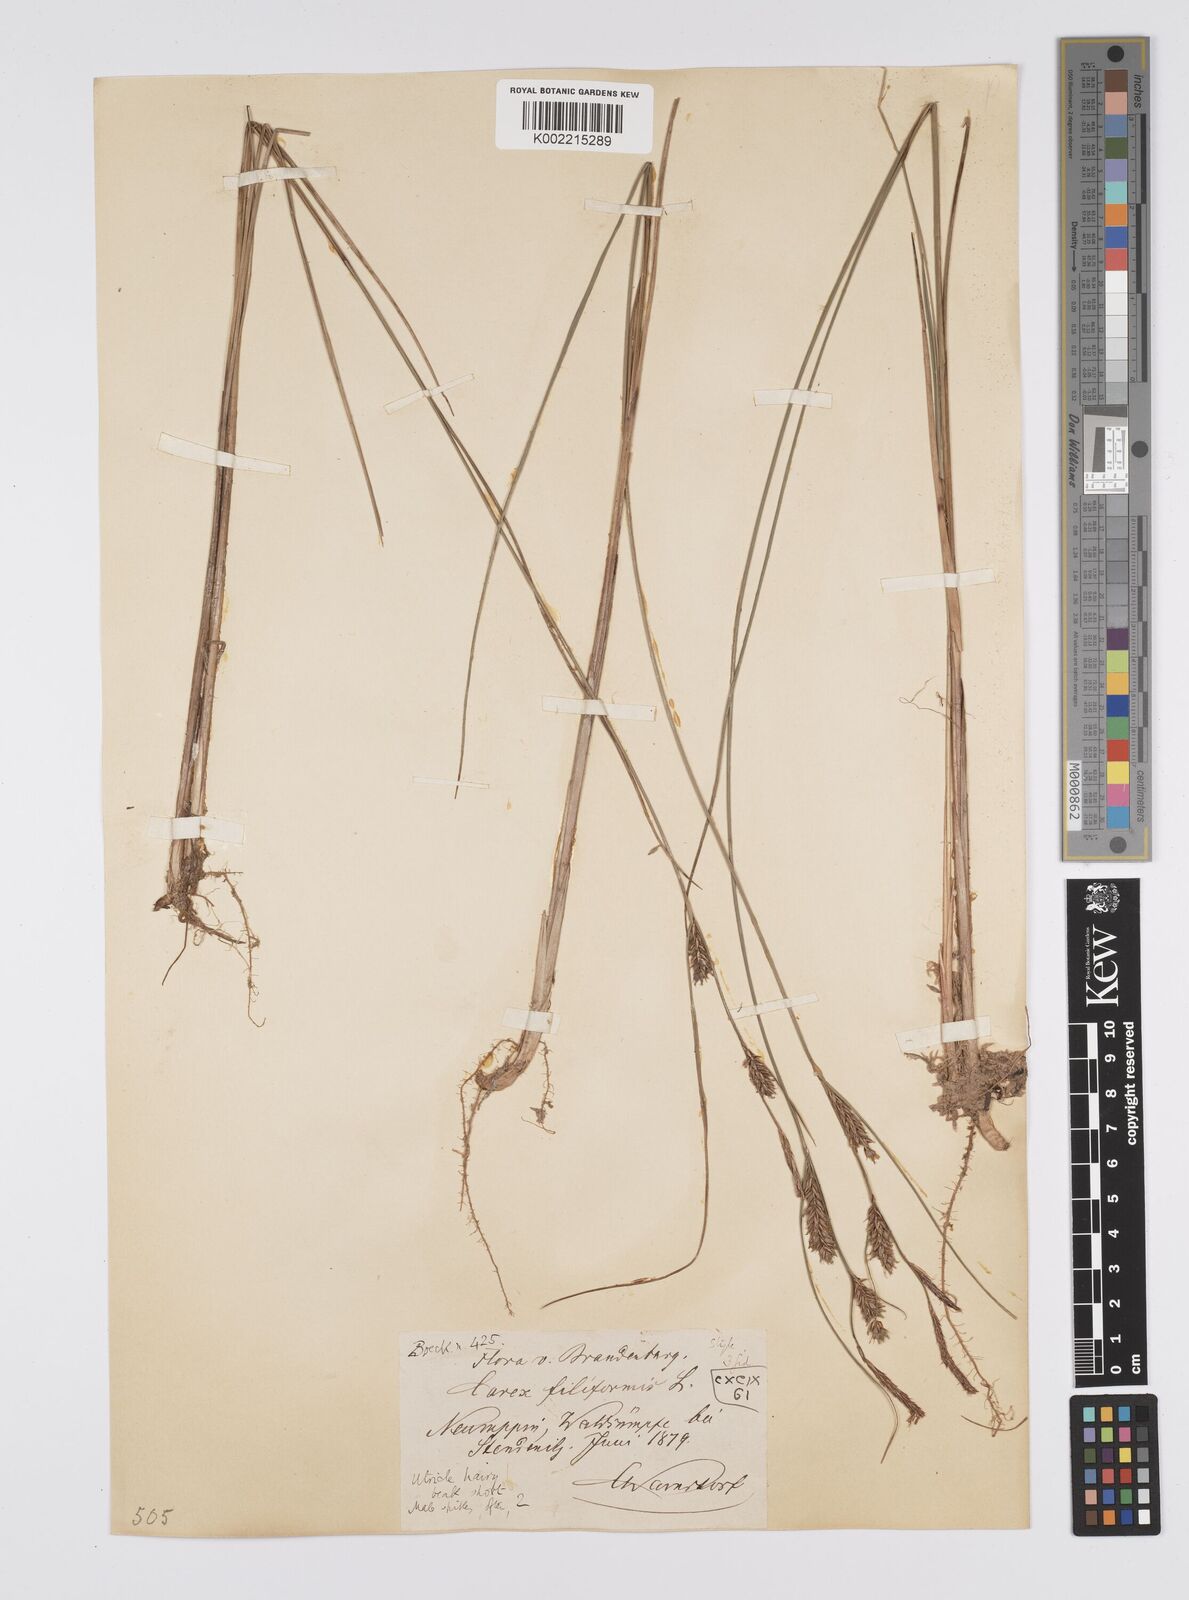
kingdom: Plantae
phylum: Tracheophyta
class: Liliopsida
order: Poales
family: Cyperaceae
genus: Carex
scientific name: Carex lasiocarpa
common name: Slender sedge
